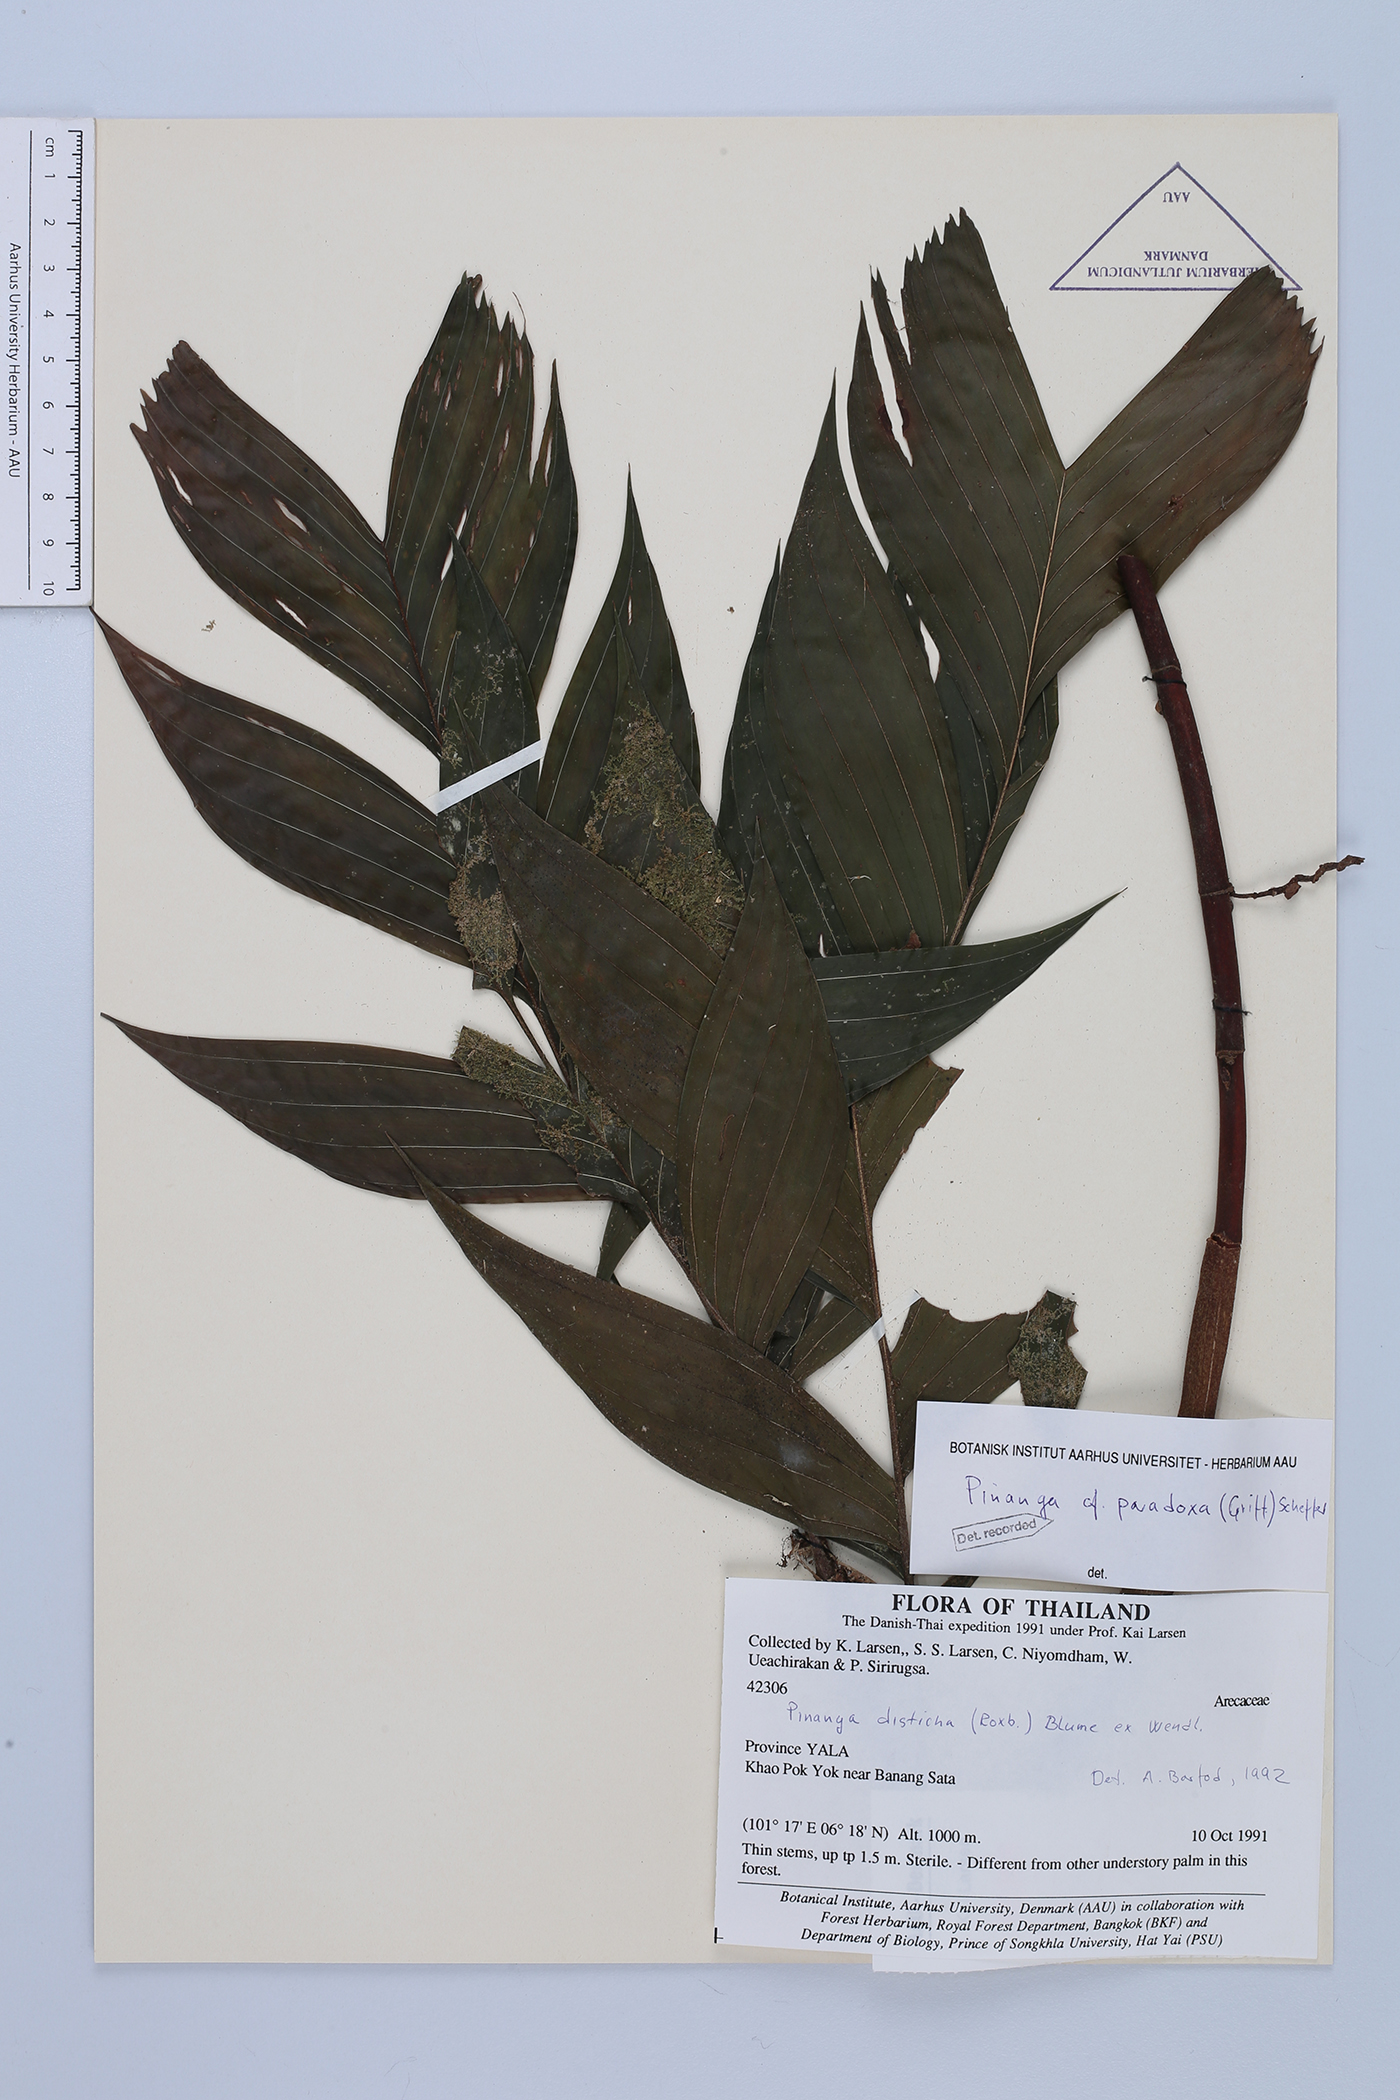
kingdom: Plantae
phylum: Tracheophyta
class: Liliopsida
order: Arecales
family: Arecaceae
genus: Pinanga
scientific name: Pinanga paradoxa
